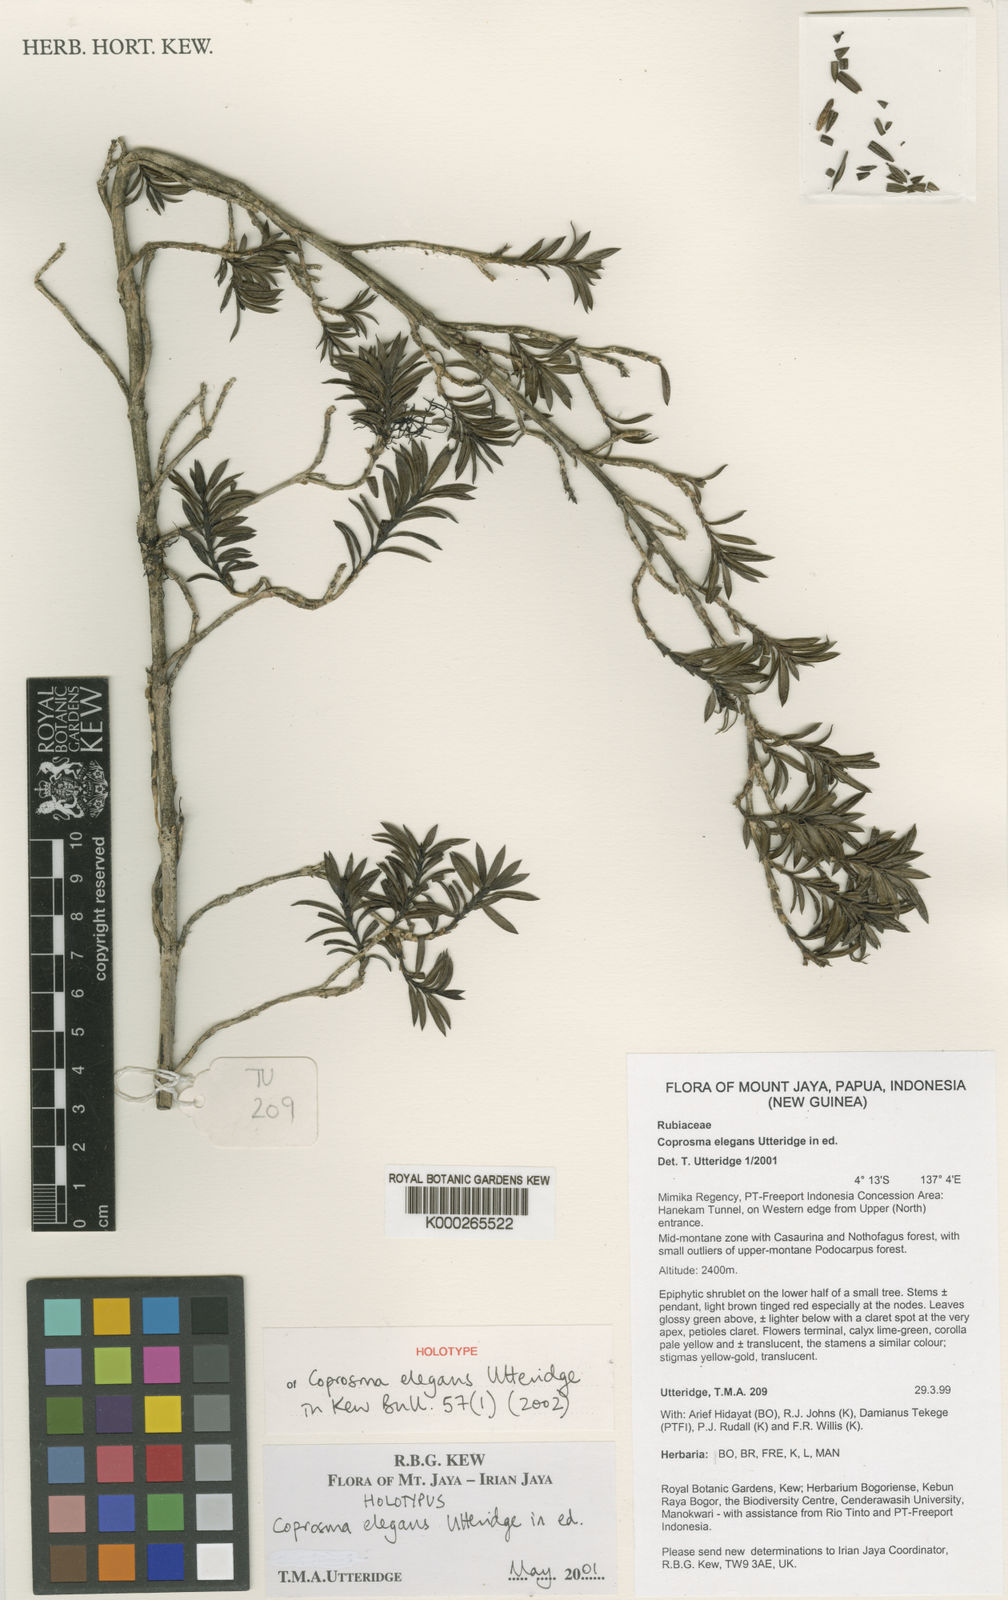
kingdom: Plantae
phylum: Tracheophyta
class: Magnoliopsida
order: Gentianales
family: Rubiaceae
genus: Coprosma
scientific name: Coprosma elegans
